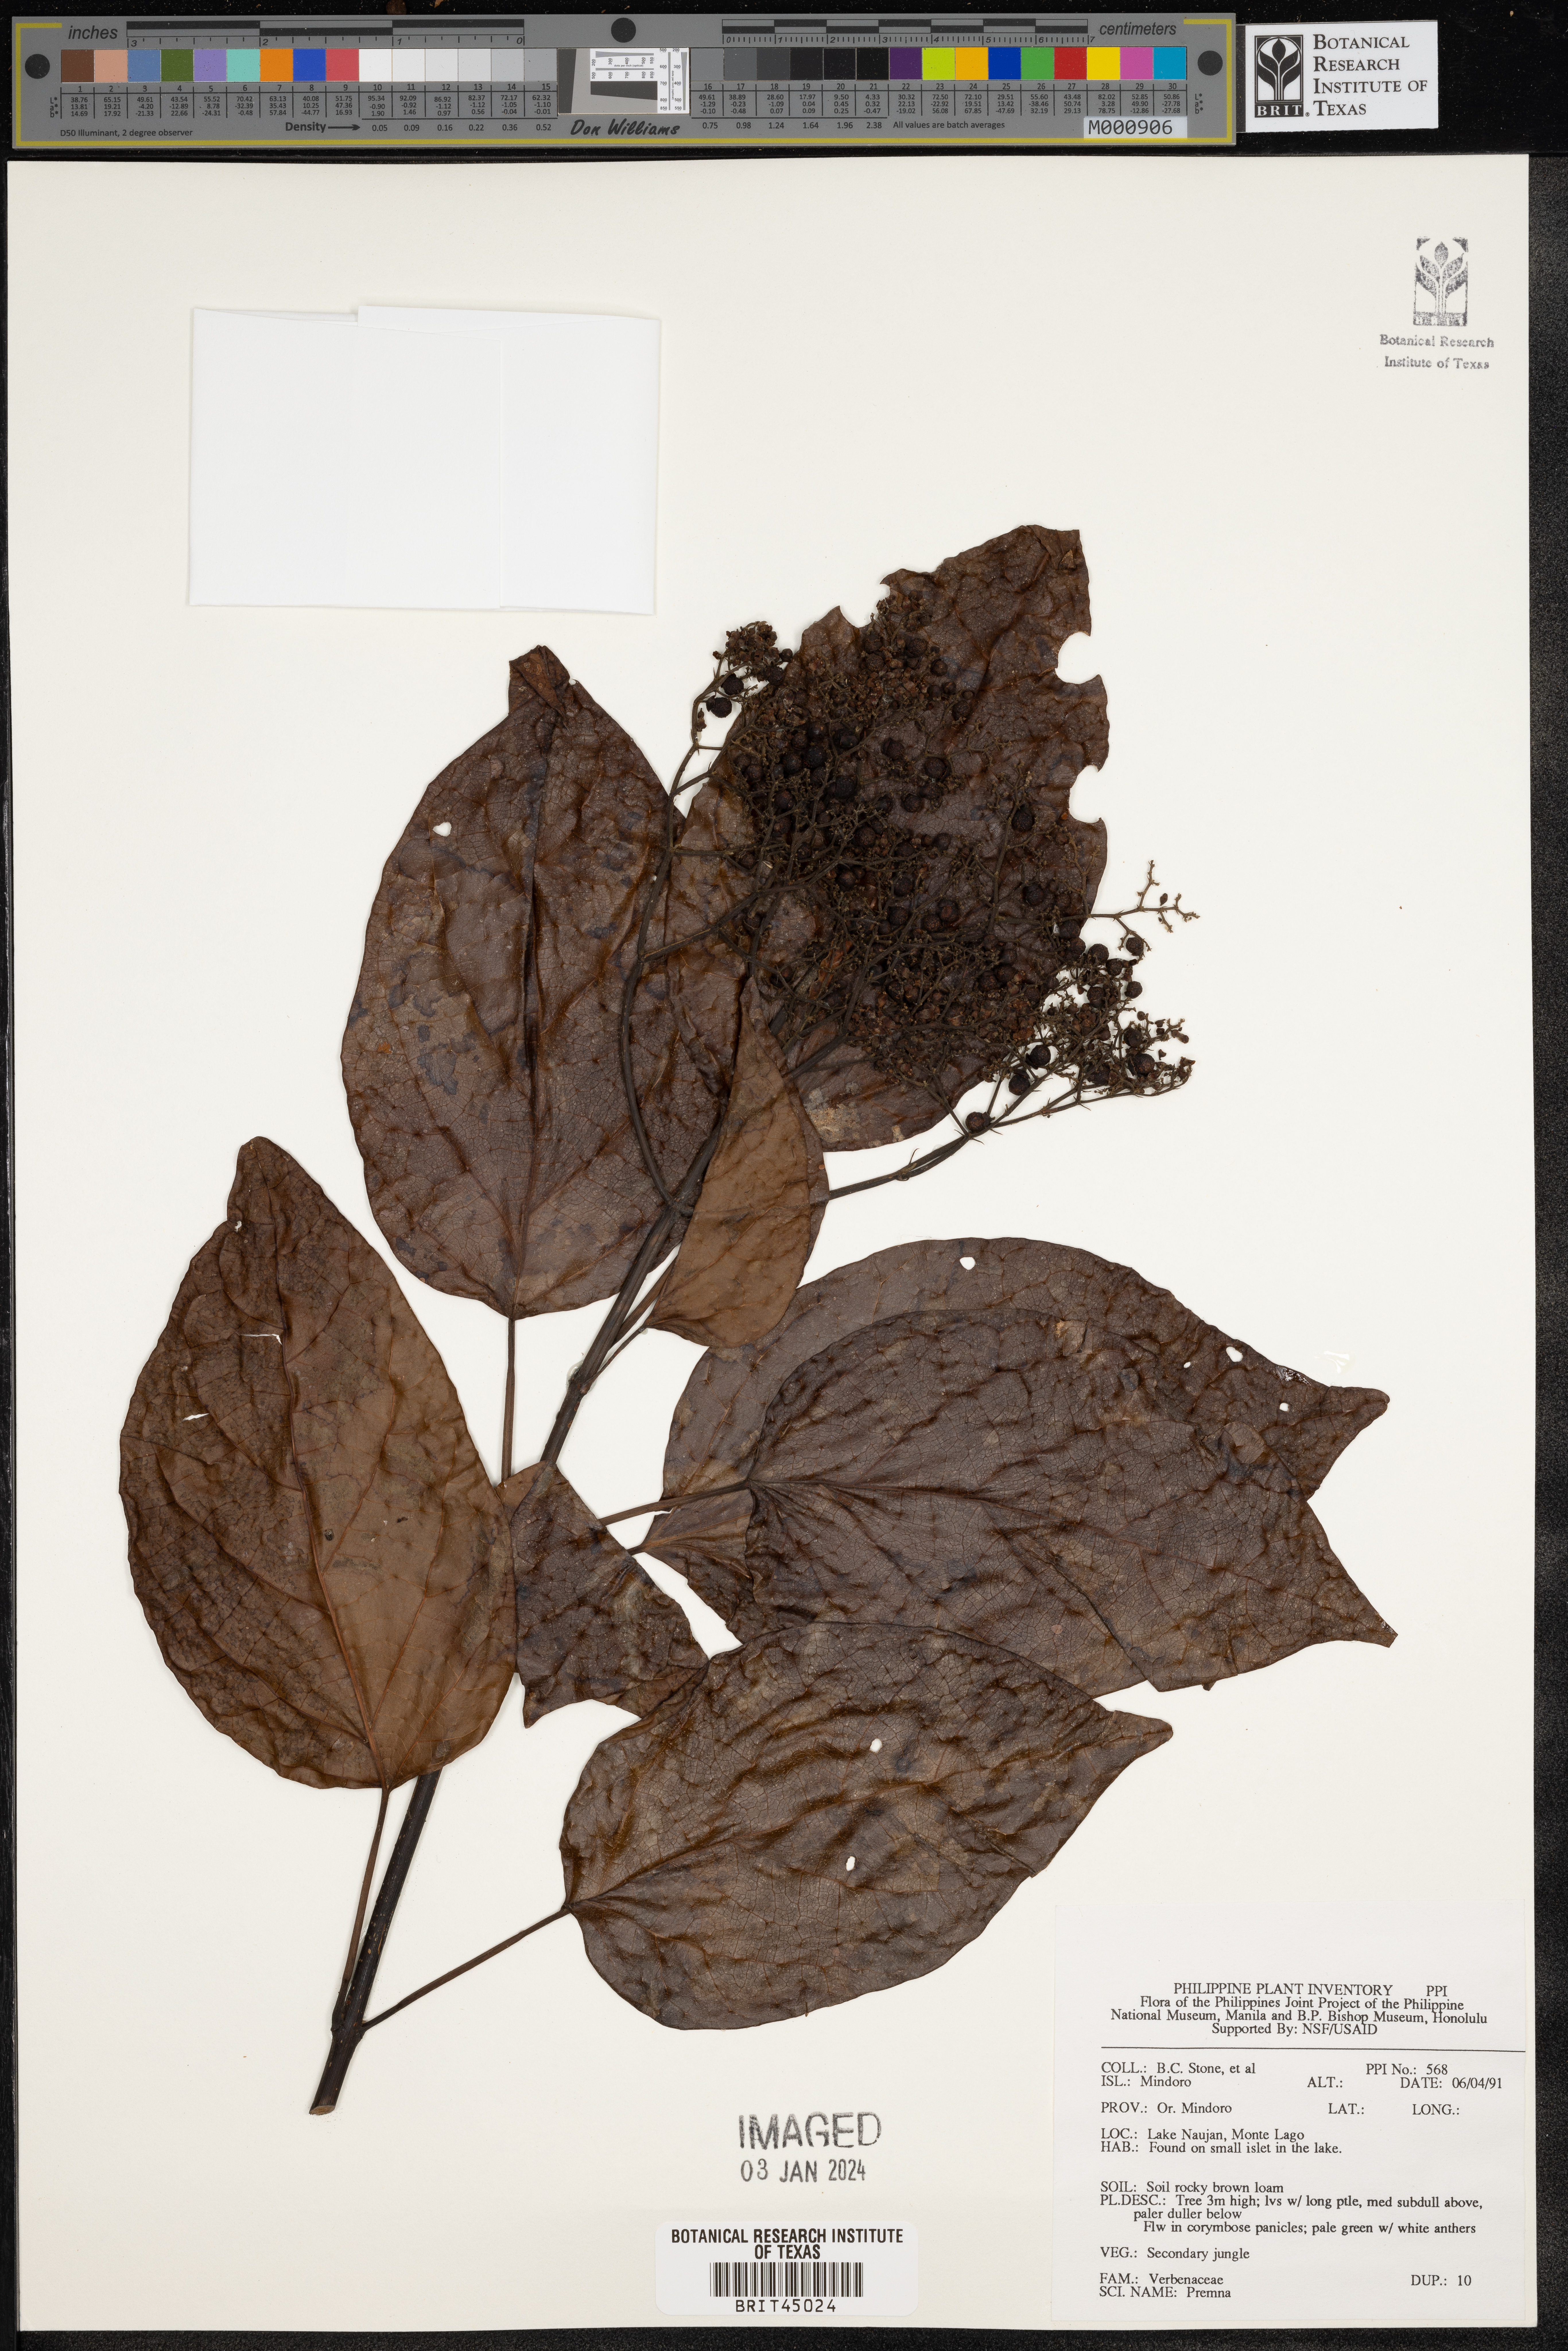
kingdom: Plantae
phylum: Tracheophyta
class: Magnoliopsida
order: Lamiales
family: Lamiaceae
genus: Premna
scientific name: Premna
